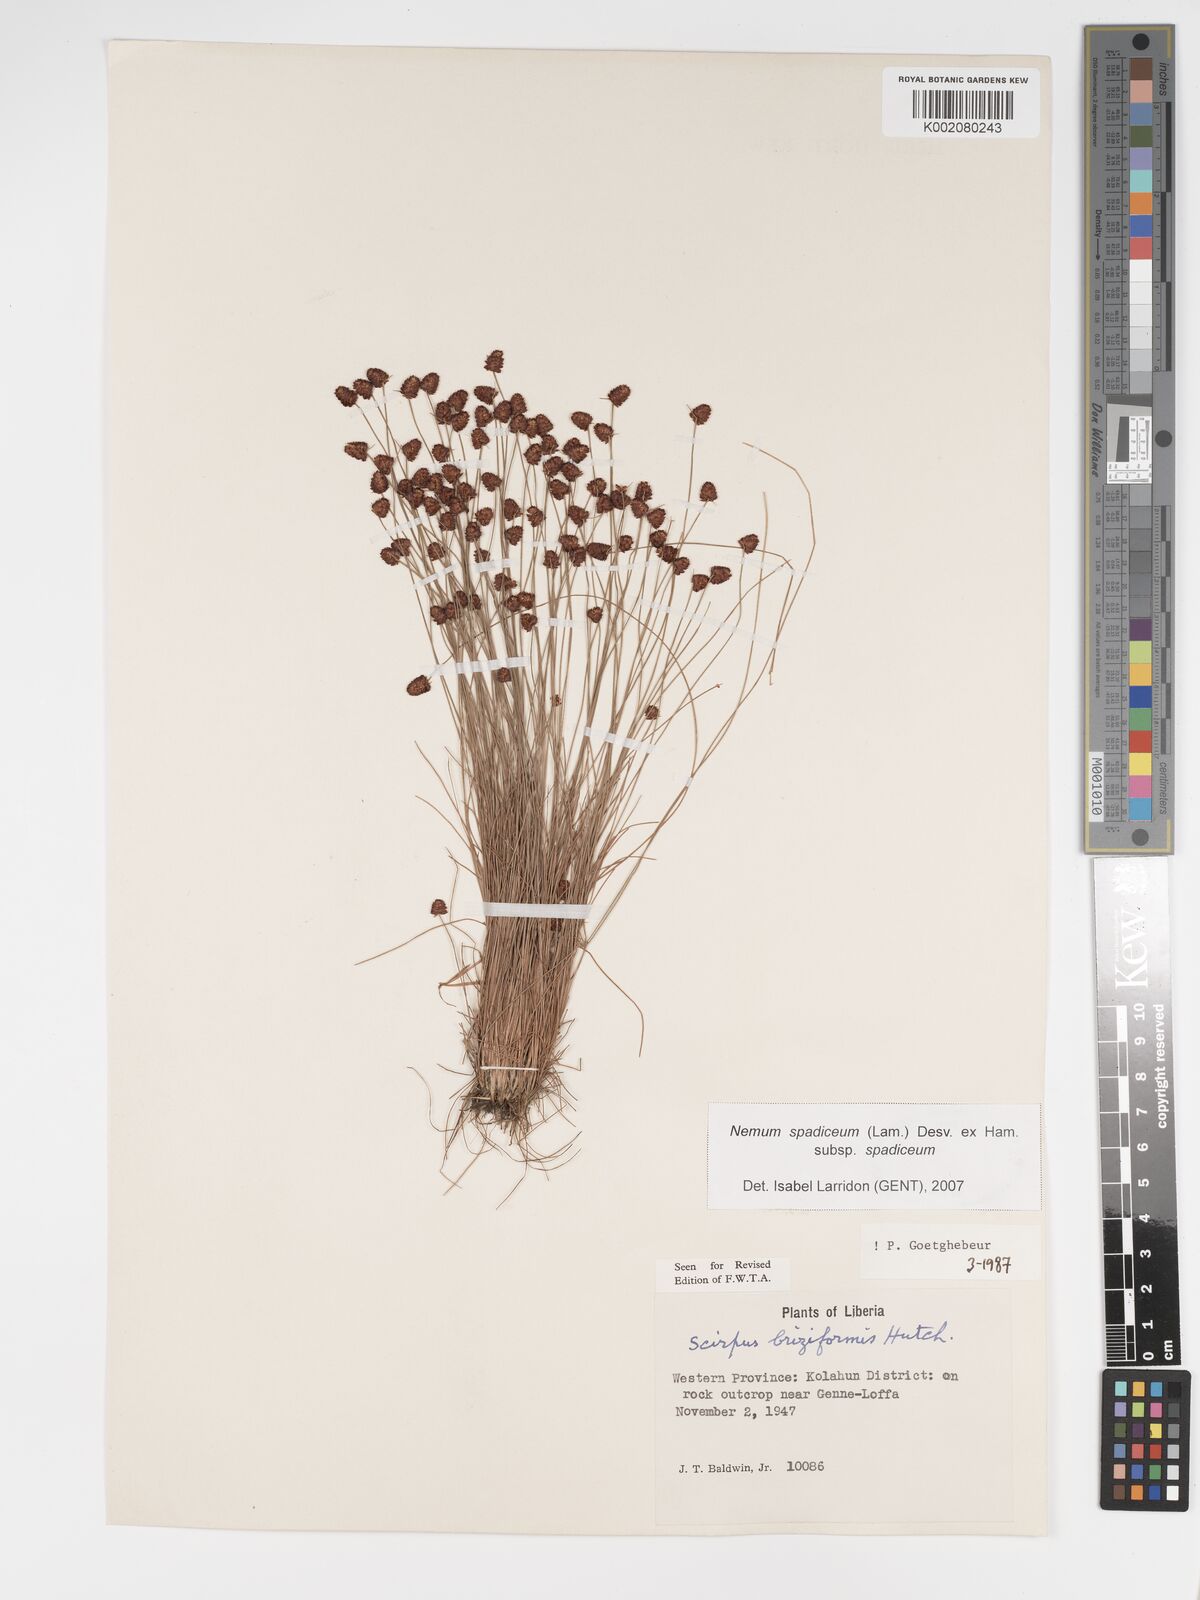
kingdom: Plantae
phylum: Tracheophyta
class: Liliopsida
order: Poales
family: Cyperaceae
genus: Bulbostylis
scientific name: Bulbostylis briziformis
